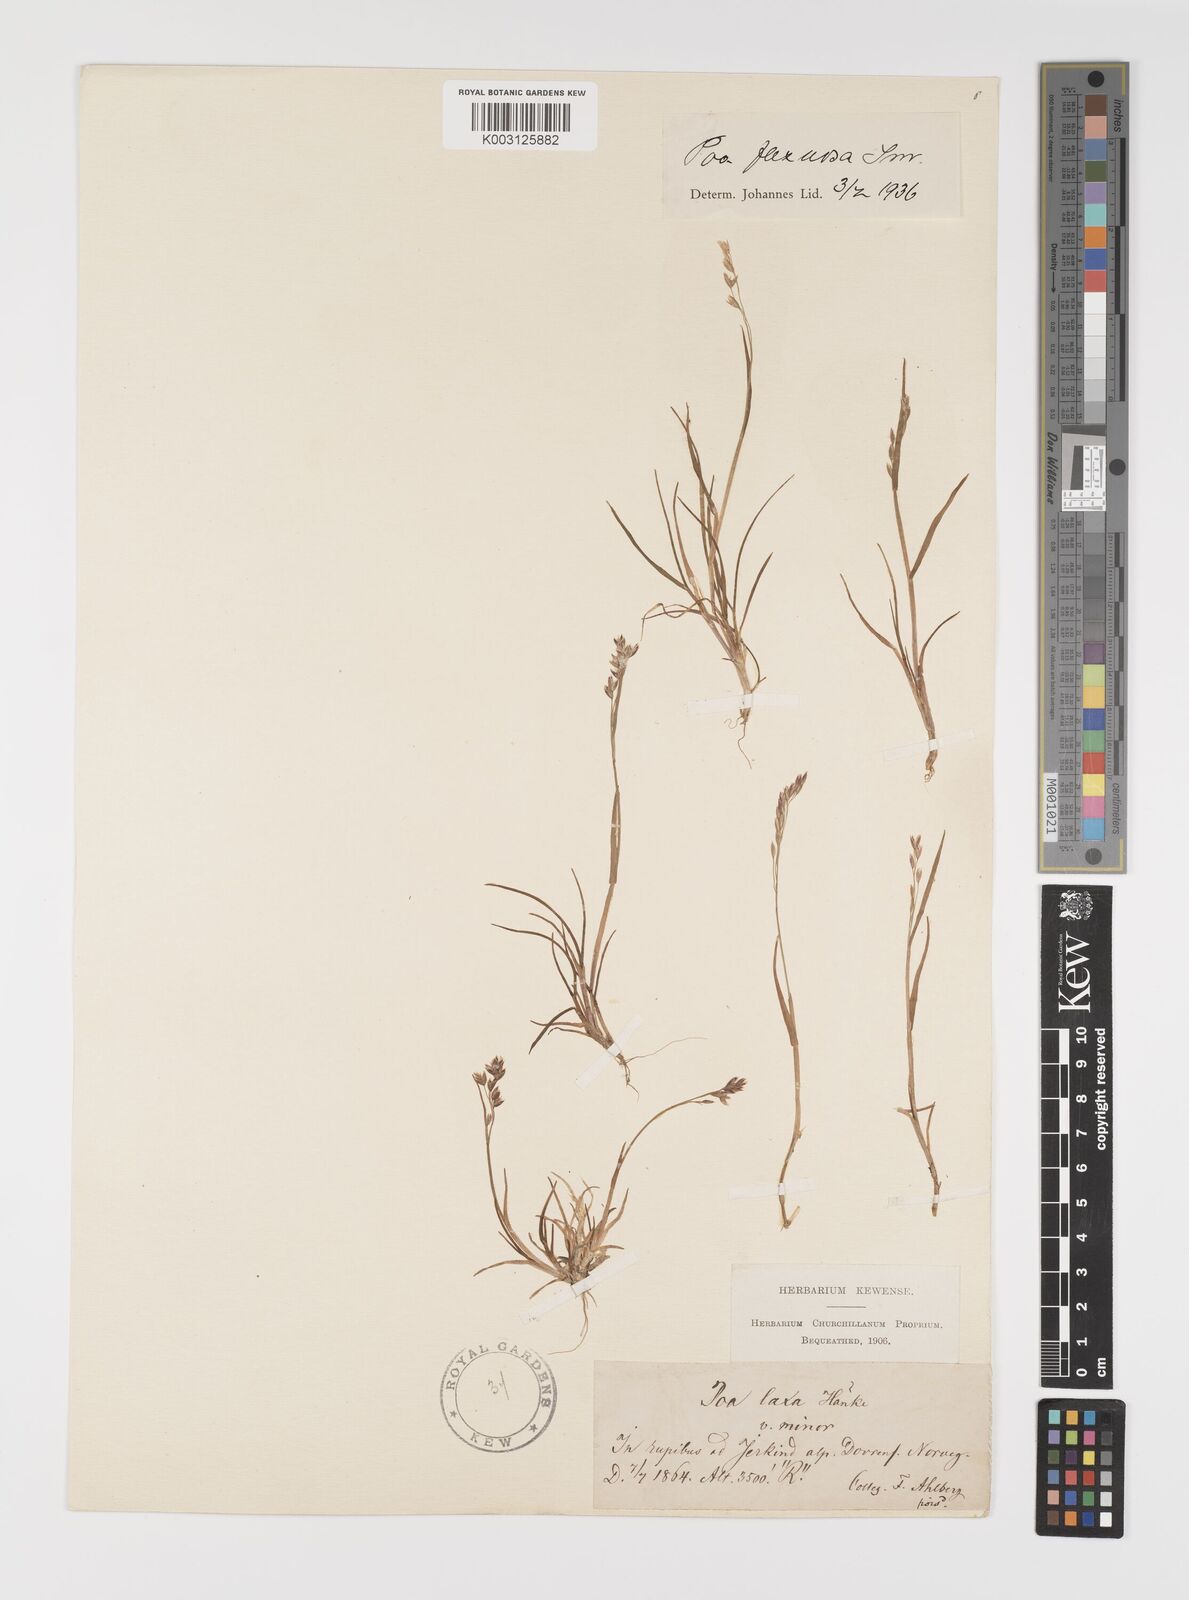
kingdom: Plantae
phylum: Tracheophyta
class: Liliopsida
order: Poales
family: Poaceae
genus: Eragrostis
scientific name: Eragrostis cilianensis
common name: Stinkgrass
